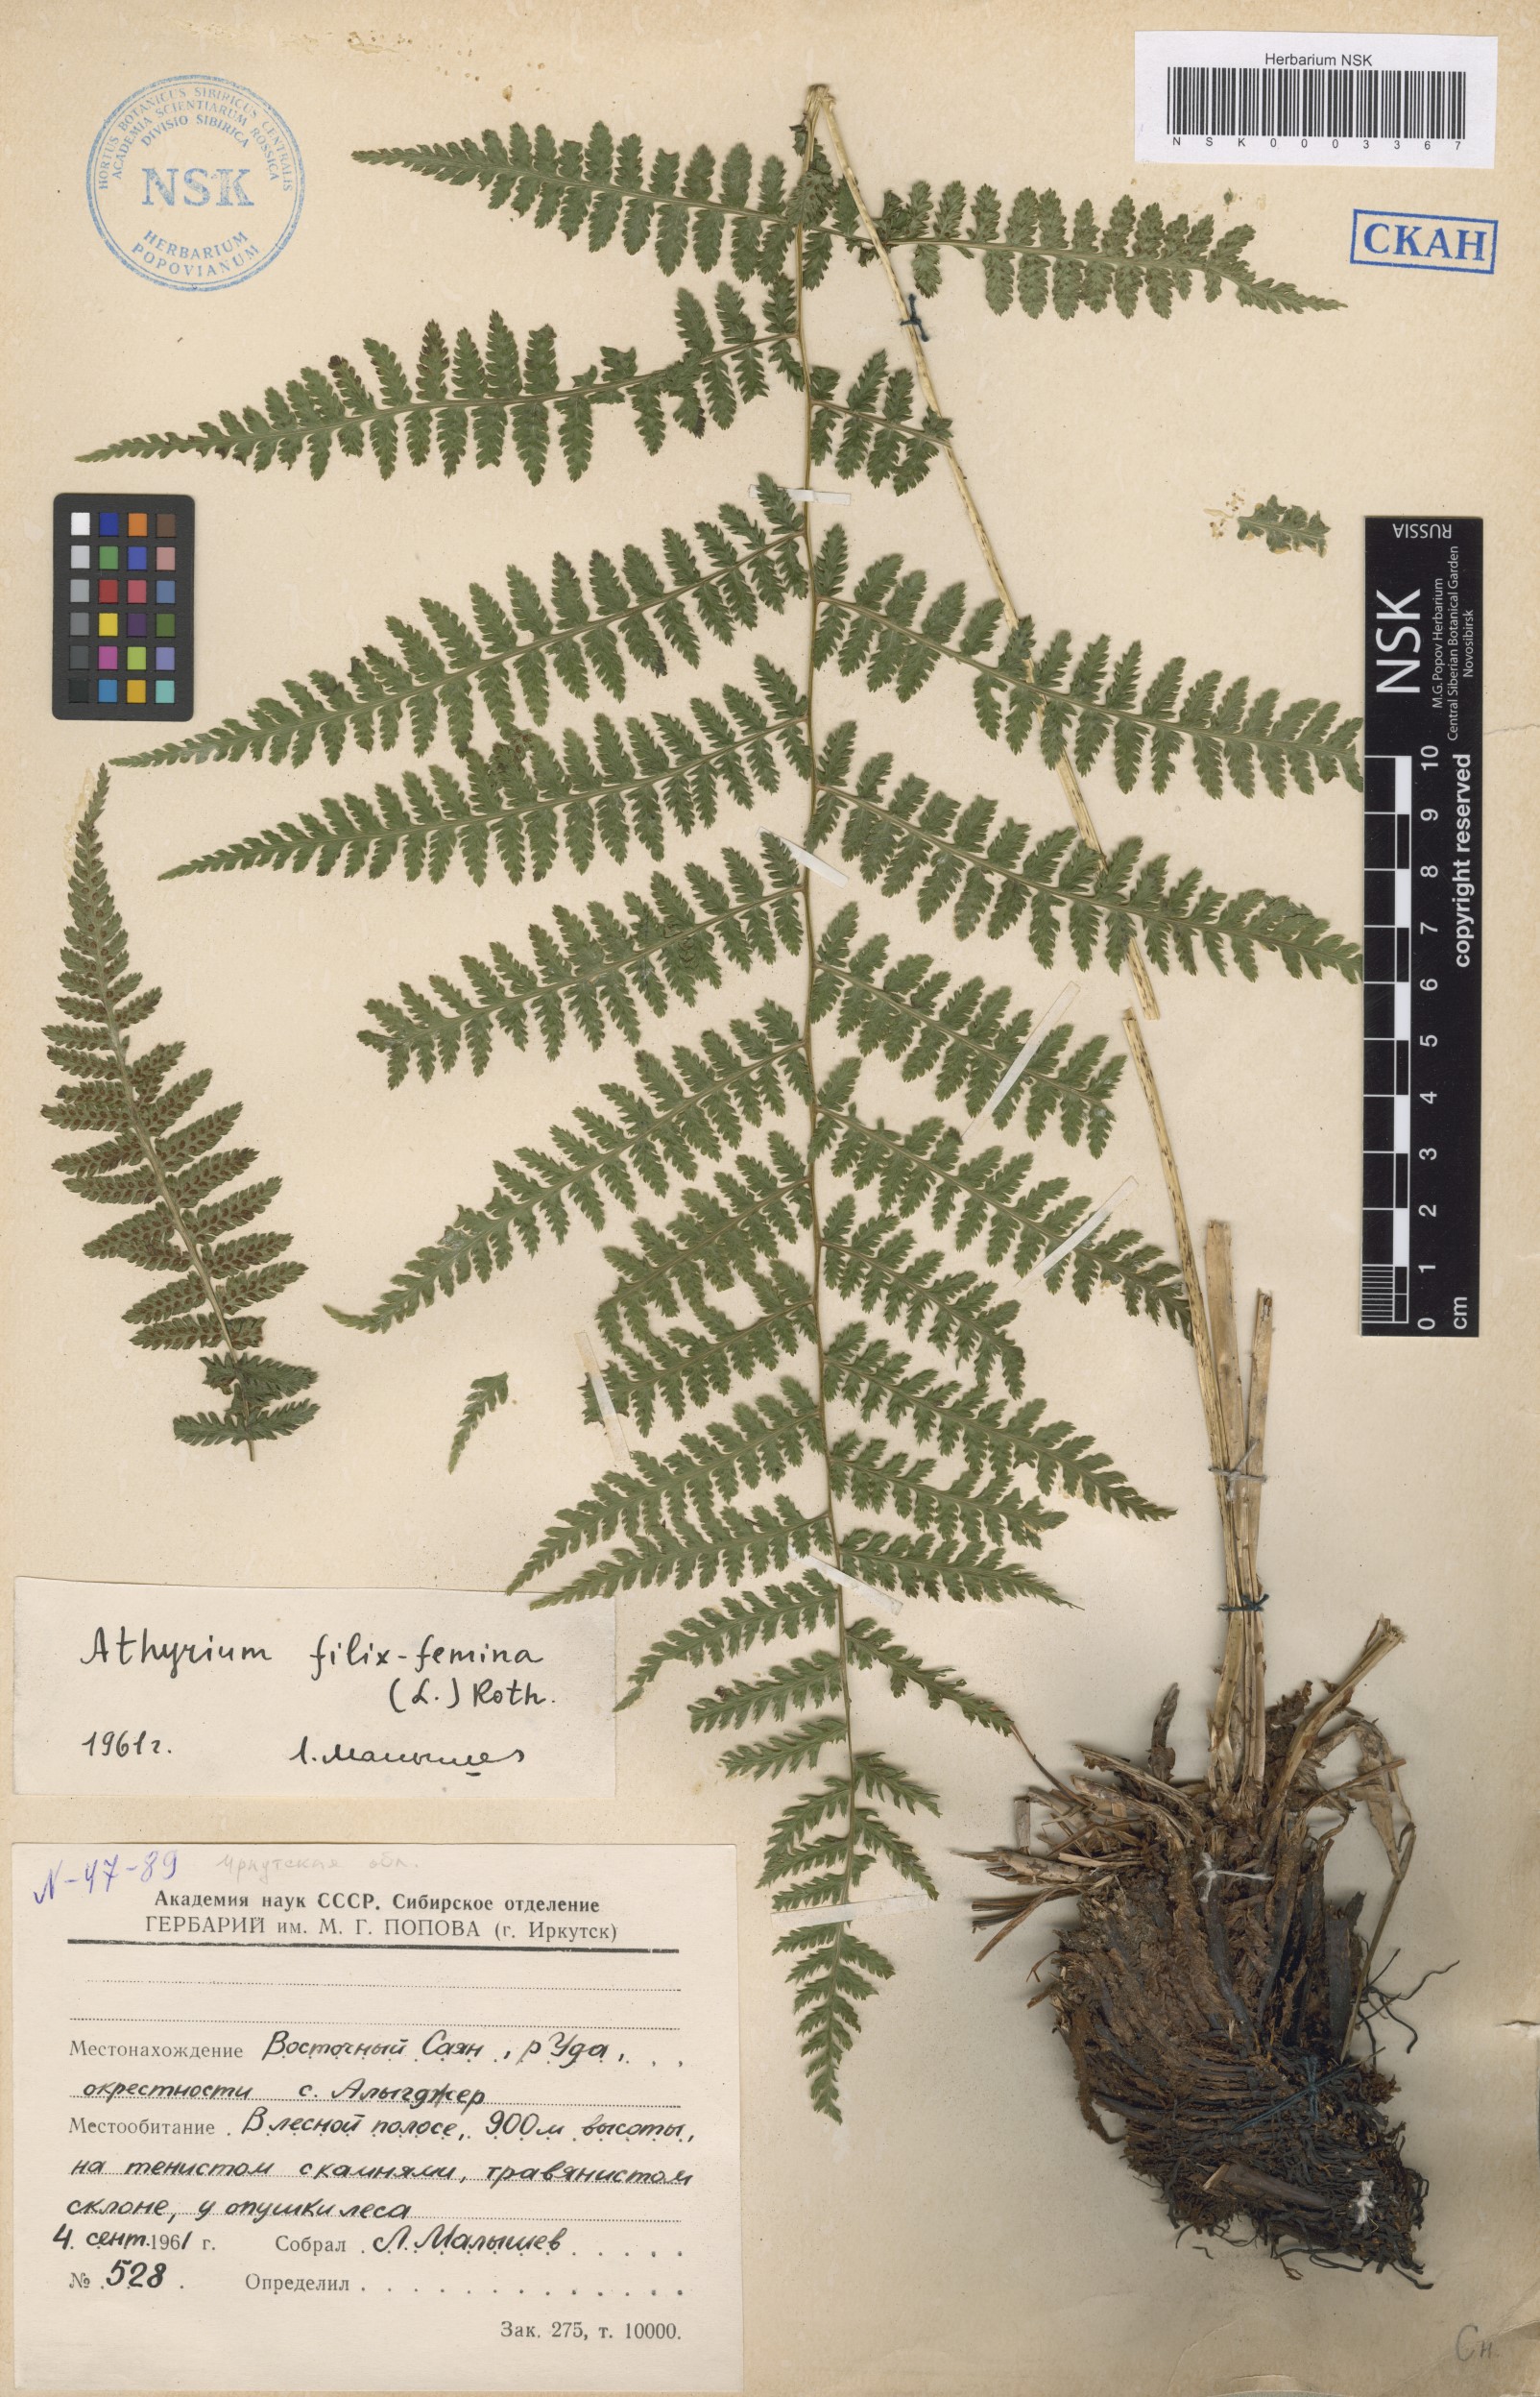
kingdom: Plantae
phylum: Tracheophyta
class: Polypodiopsida
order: Polypodiales
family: Athyriaceae
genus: Athyrium
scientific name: Athyrium filix-femina
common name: Lady fern
